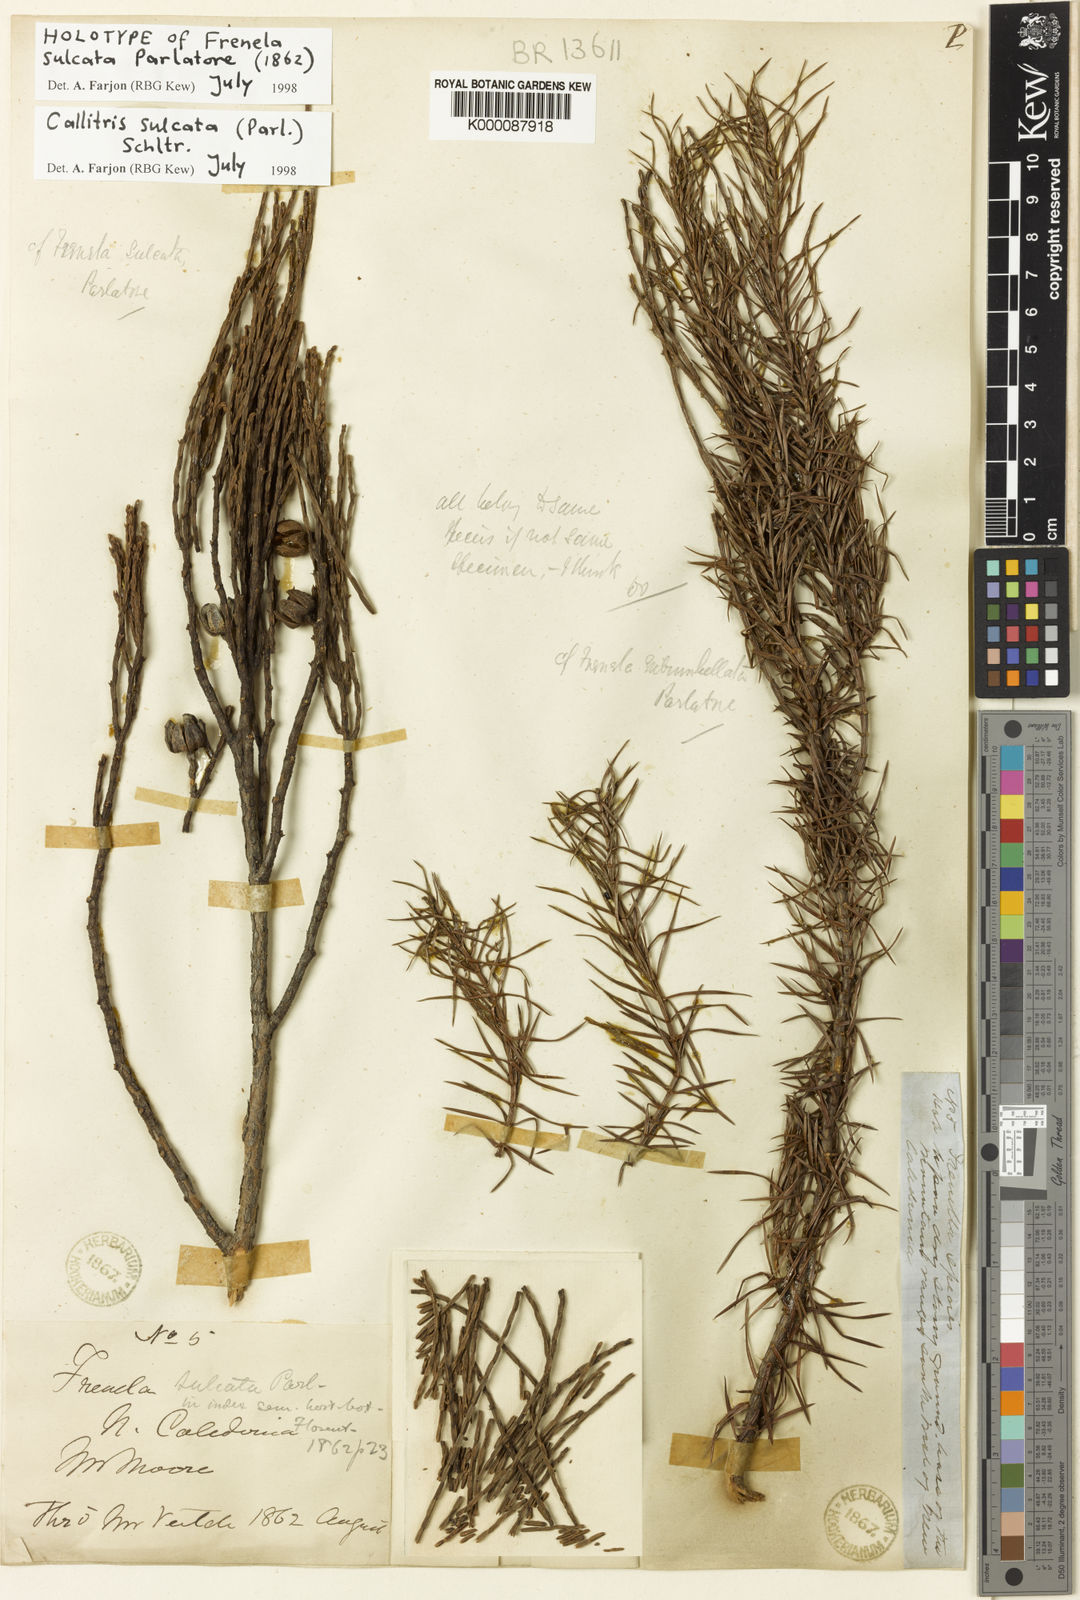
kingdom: Plantae
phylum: Tracheophyta
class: Pinopsida
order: Pinales
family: Cupressaceae
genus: Callitris
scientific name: Callitris sulcata
